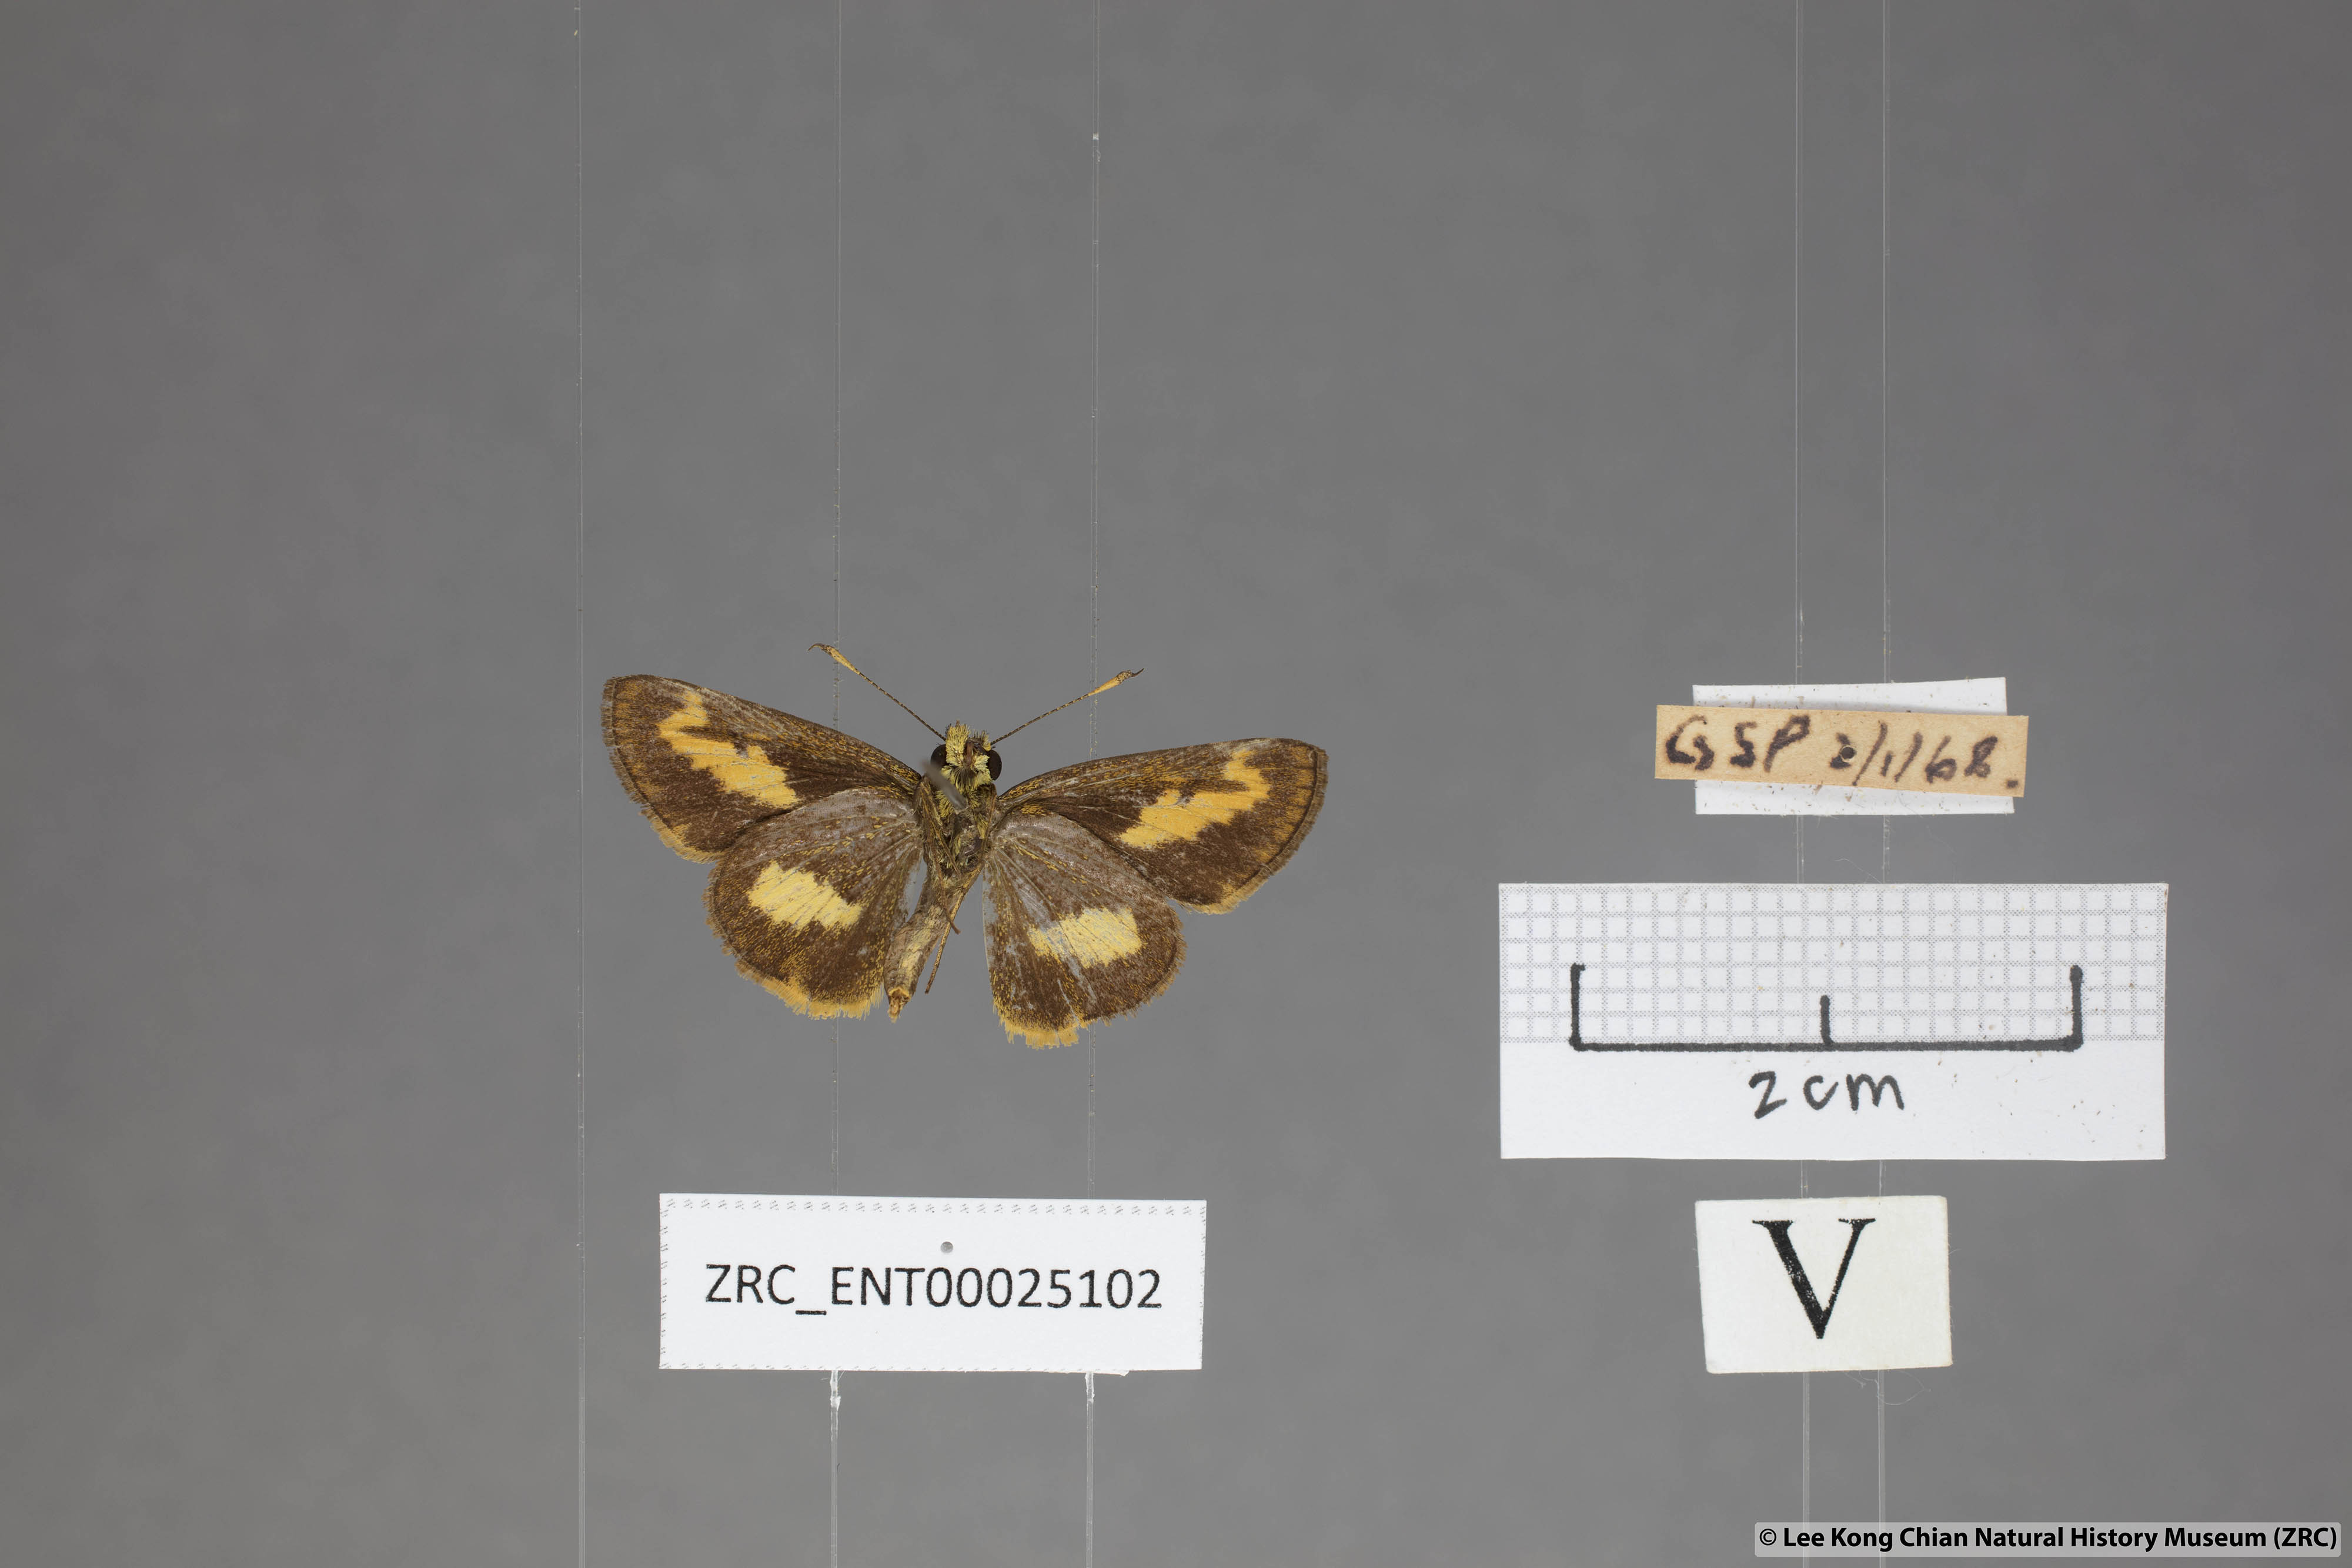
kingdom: Animalia
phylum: Arthropoda
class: Insecta
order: Lepidoptera
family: Hesperiidae
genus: Oriens
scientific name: Oriens paragola
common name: Malay dartlet
